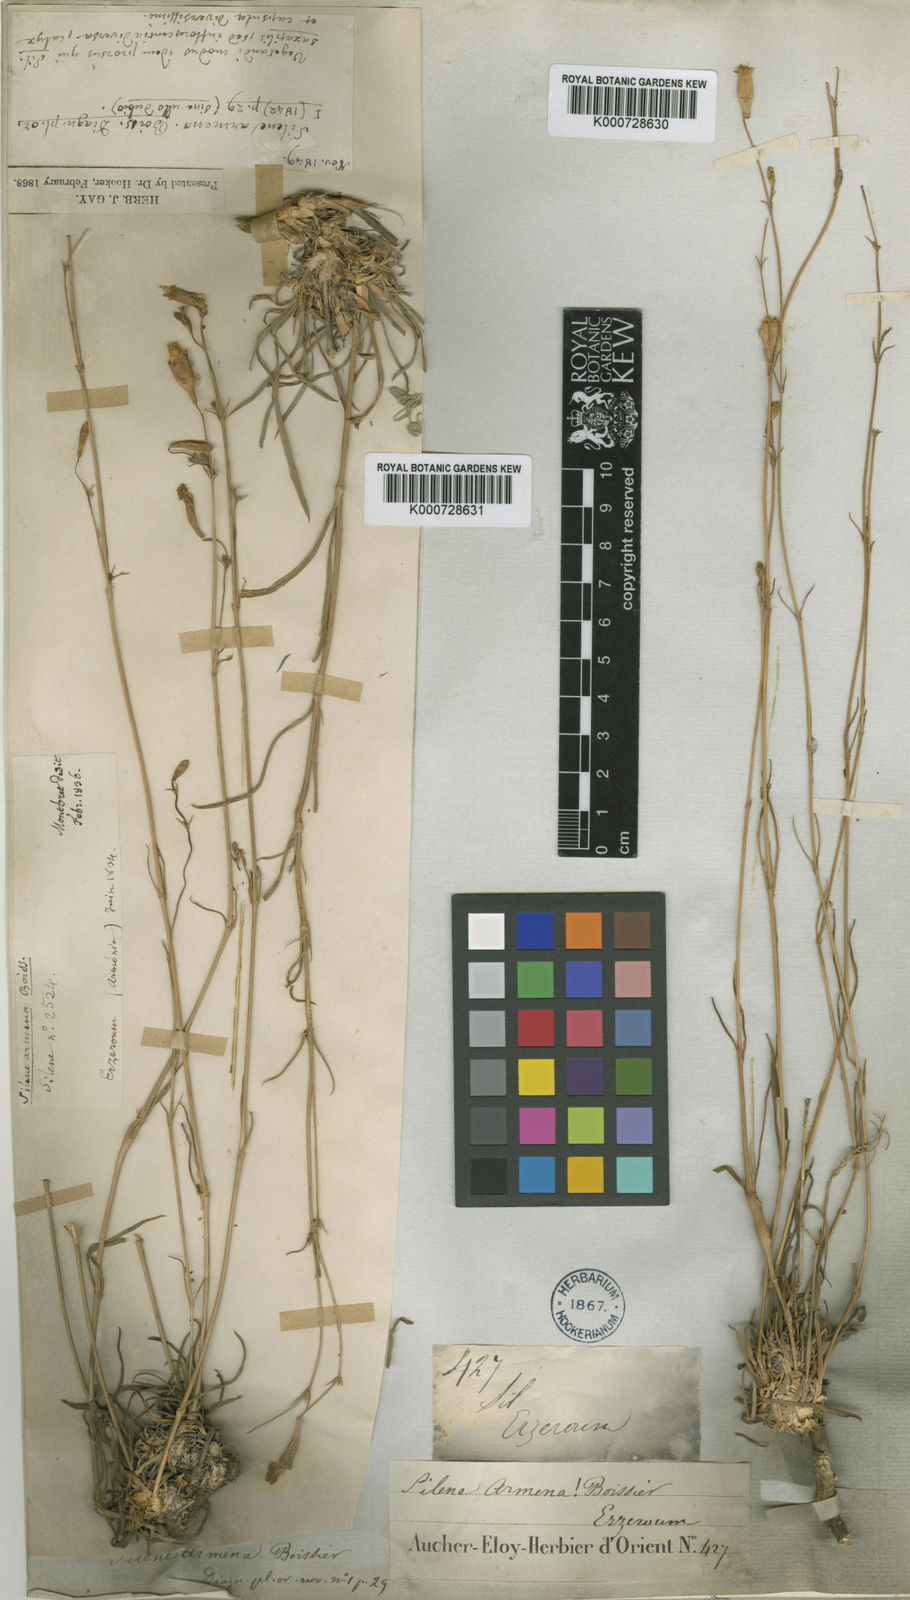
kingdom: Plantae
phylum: Tracheophyta
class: Magnoliopsida
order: Caryophyllales
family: Caryophyllaceae
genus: Silene
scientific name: Silene armena
